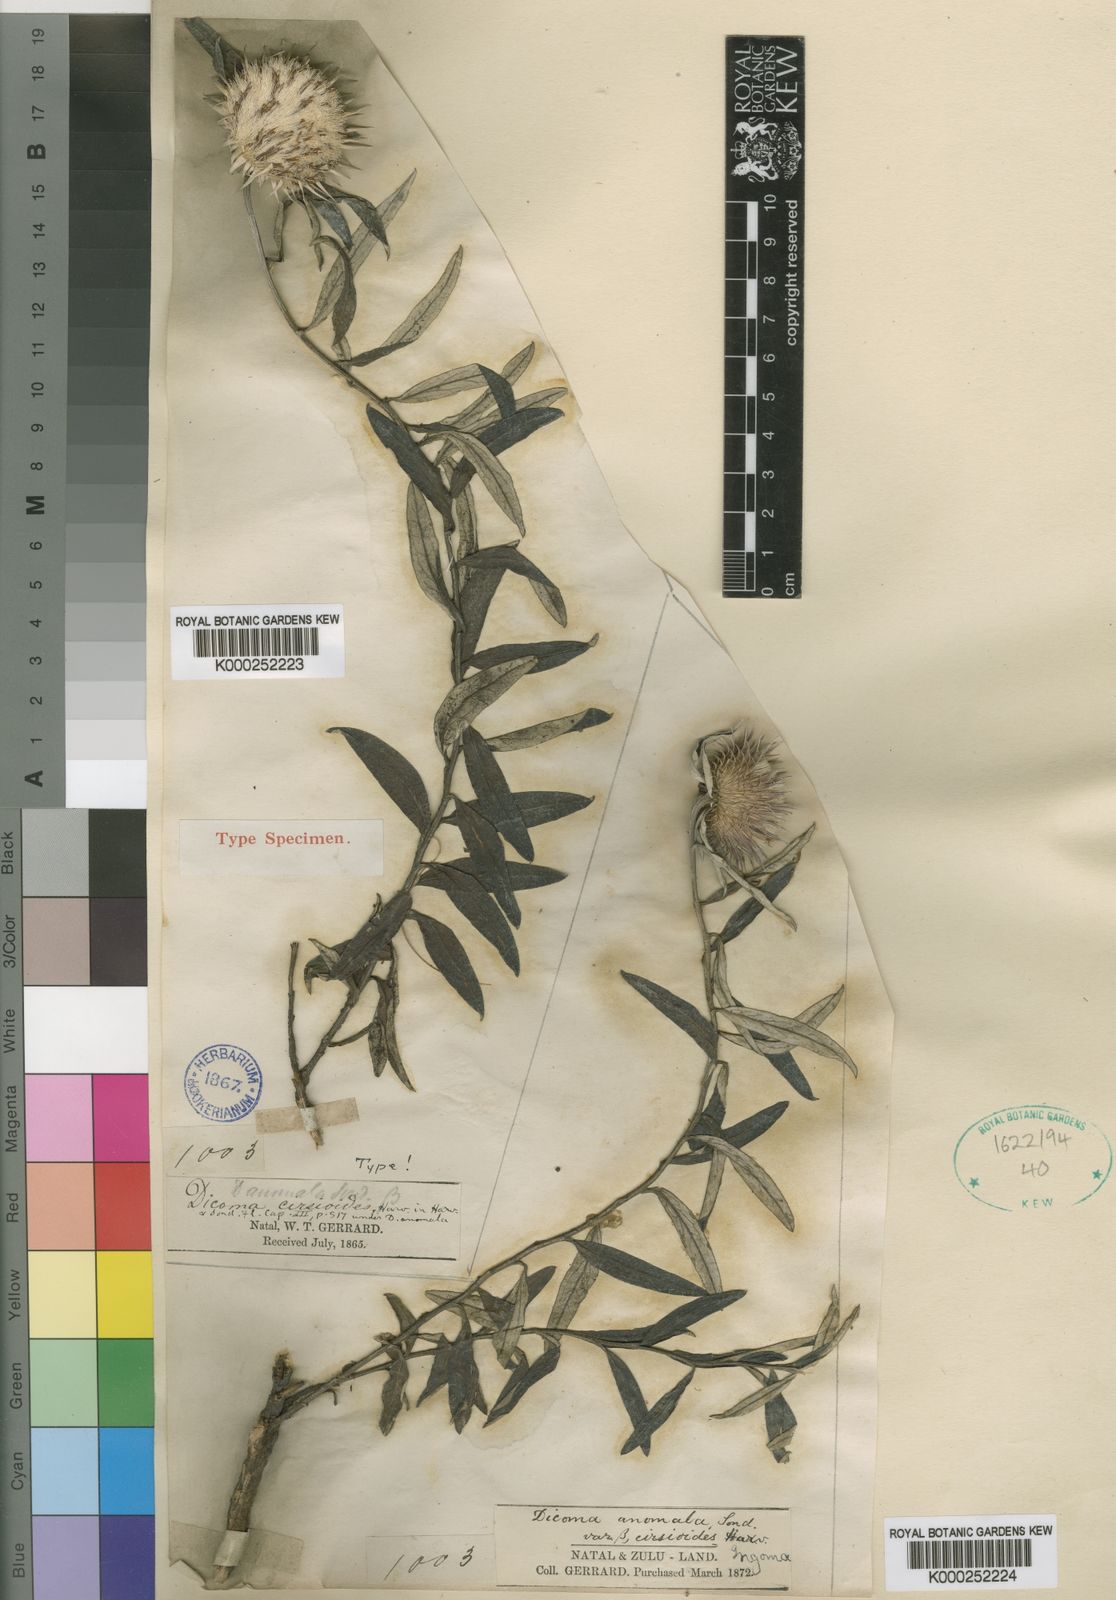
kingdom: Plantae
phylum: Tracheophyta
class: Magnoliopsida
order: Asterales
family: Asteraceae
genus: Dicoma
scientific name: Dicoma anomala
